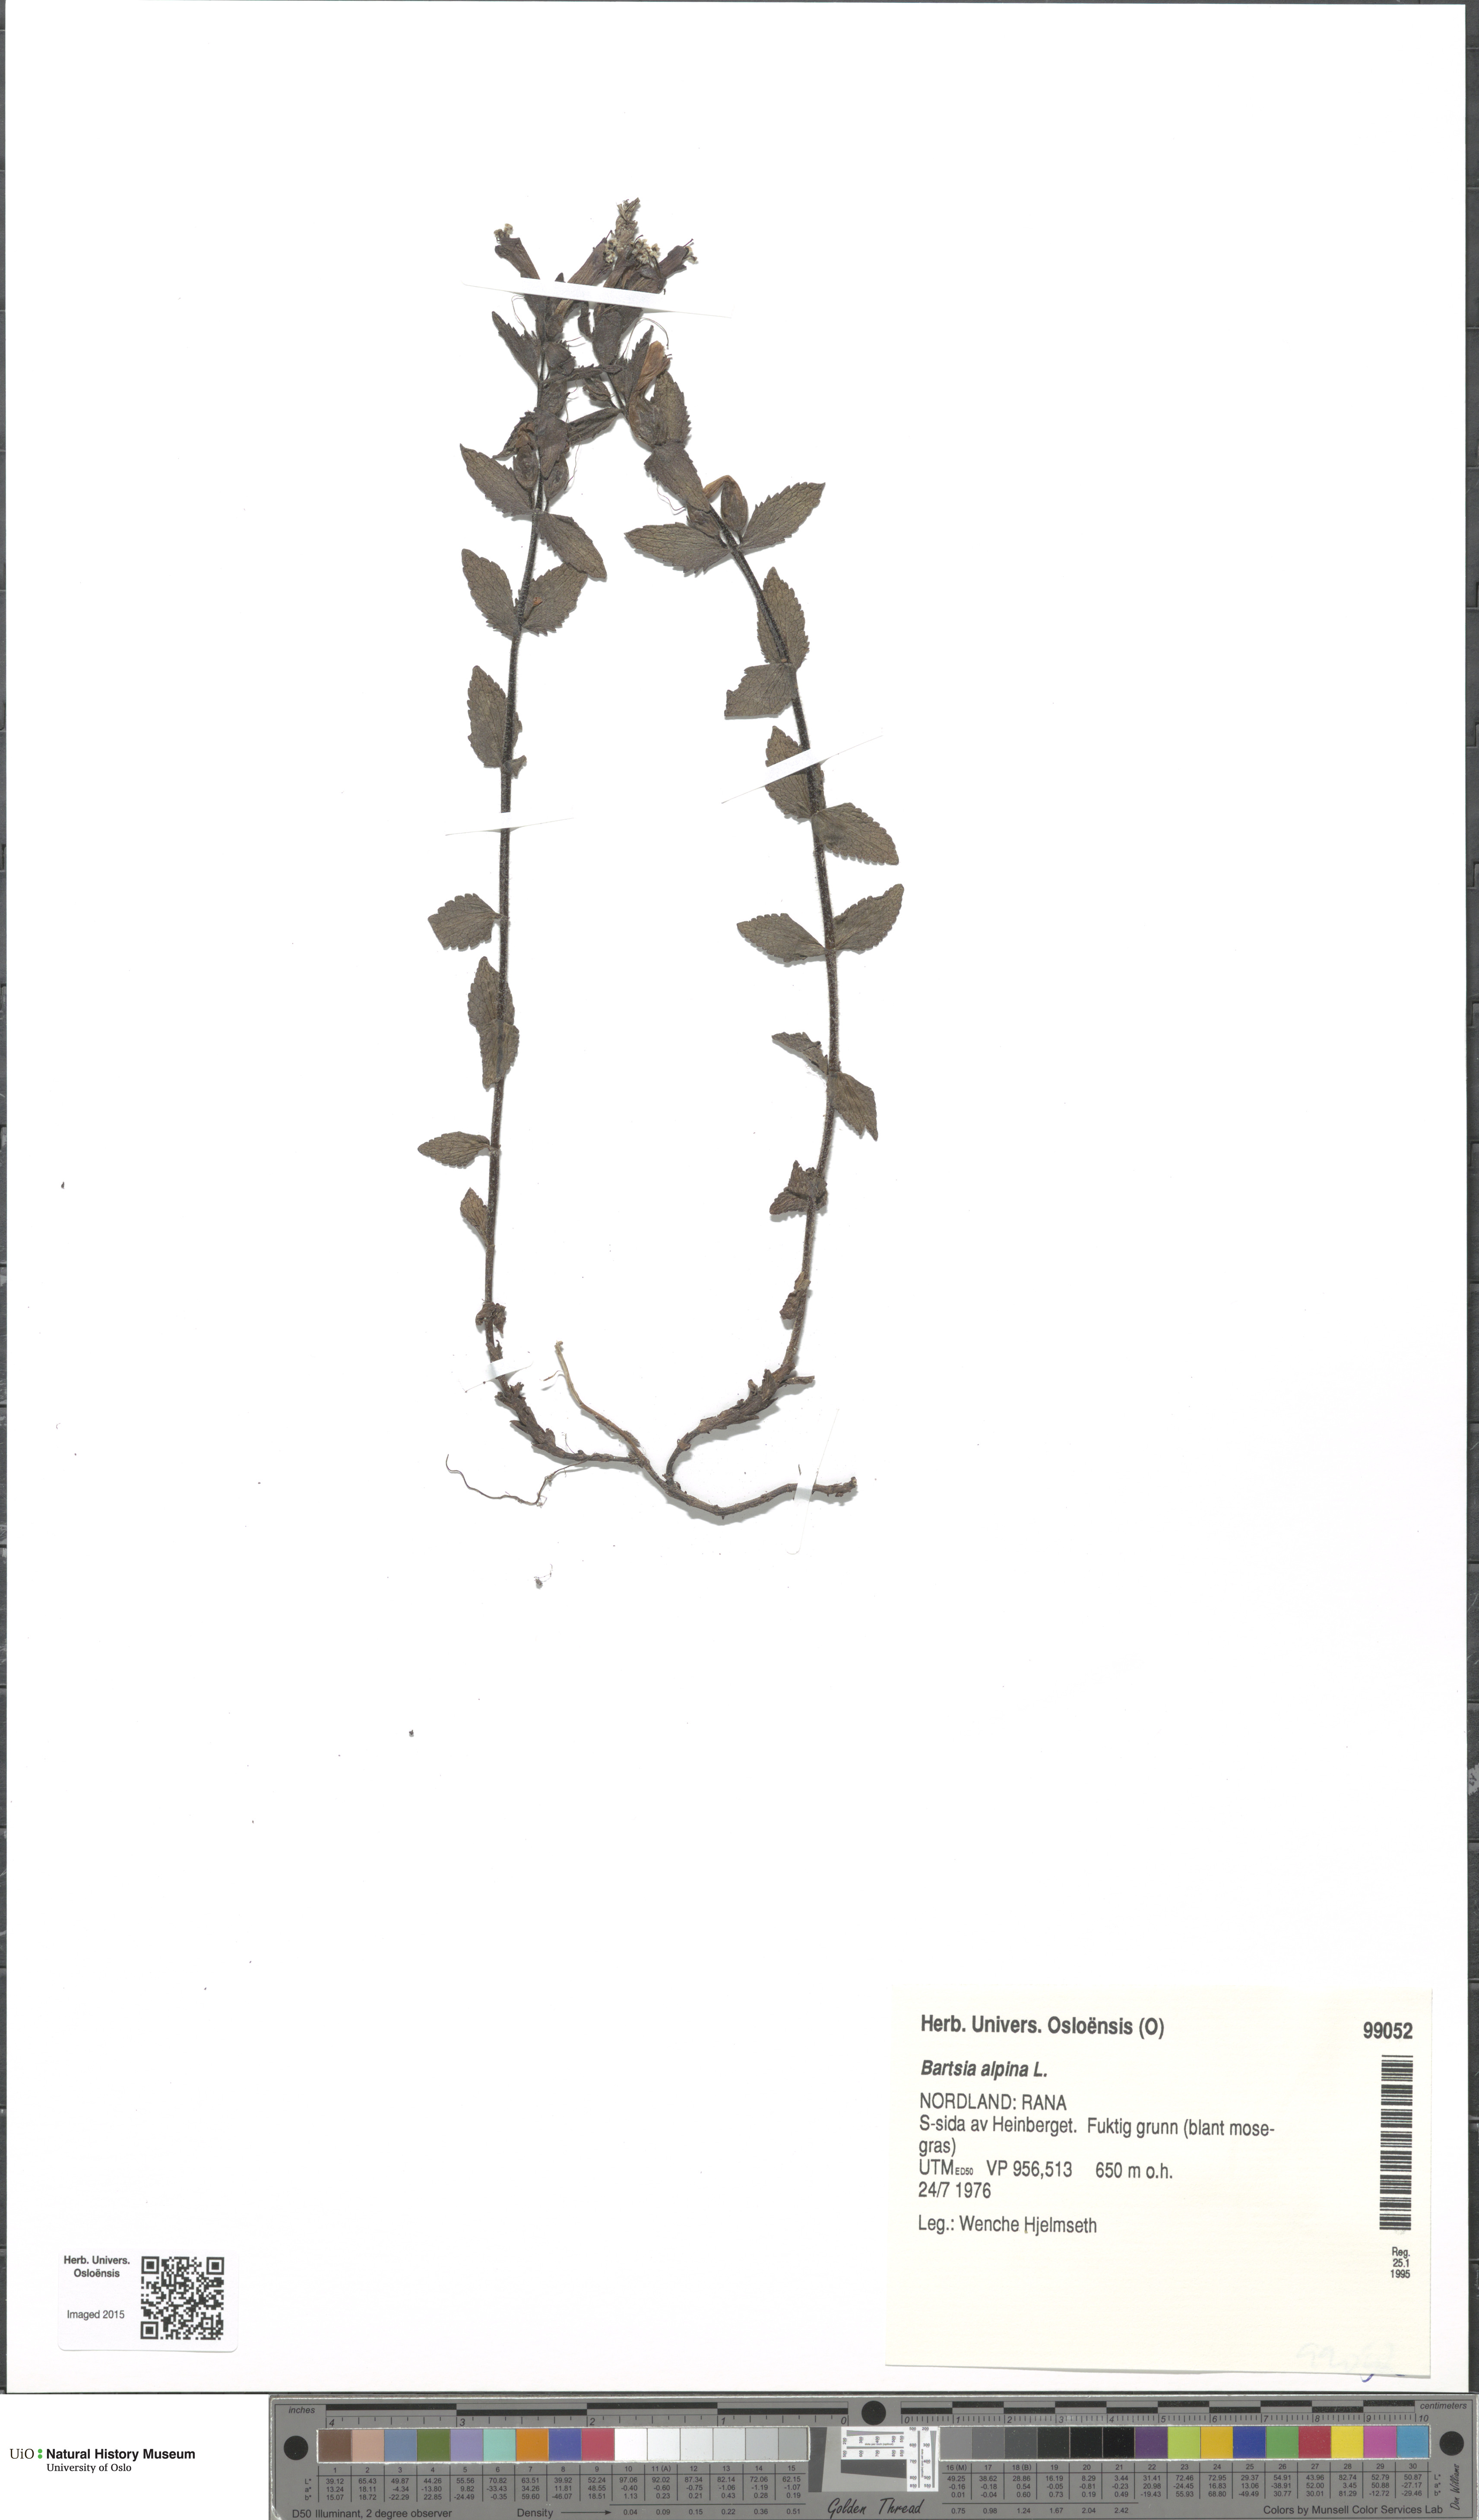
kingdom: Plantae
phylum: Tracheophyta
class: Magnoliopsida
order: Lamiales
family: Orobanchaceae
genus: Bartsia
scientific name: Bartsia alpina
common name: Alpine bartsia
